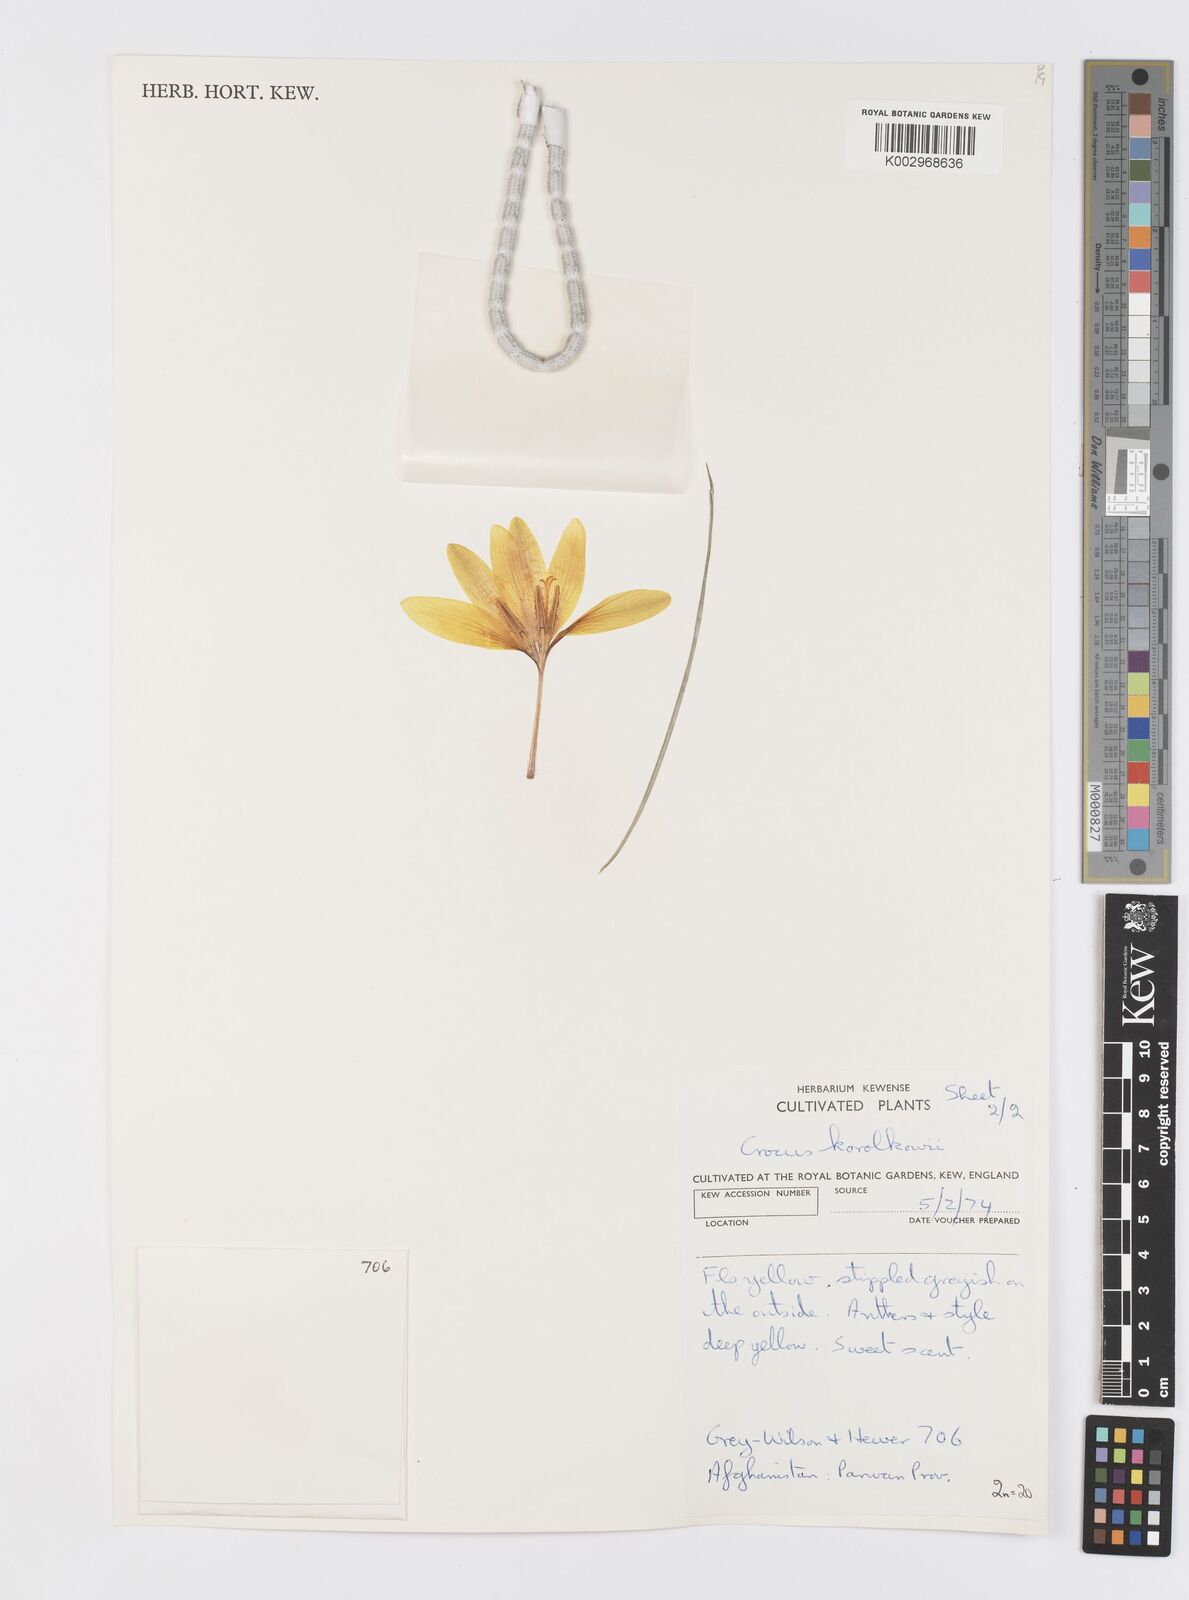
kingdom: Plantae
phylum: Tracheophyta
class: Liliopsida
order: Asparagales
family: Iridaceae
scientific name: Iridaceae
